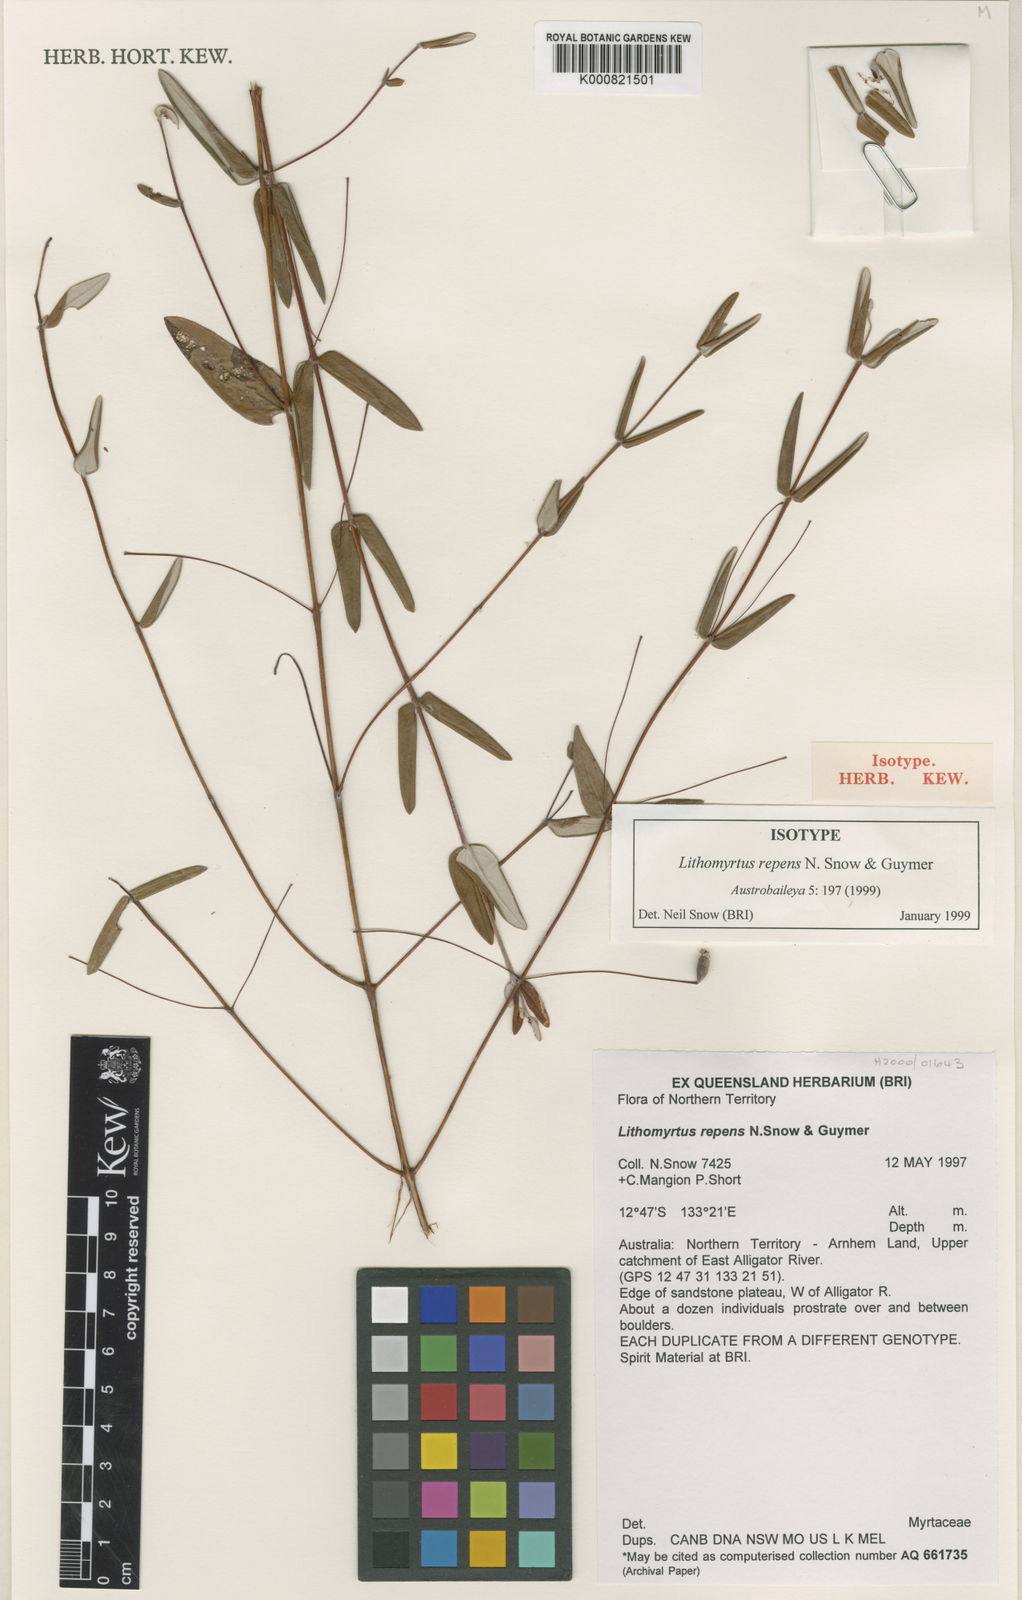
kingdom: Plantae
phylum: Tracheophyta
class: Magnoliopsida
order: Myrtales
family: Myrtaceae
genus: Lithomyrtus
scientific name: Lithomyrtus repens
